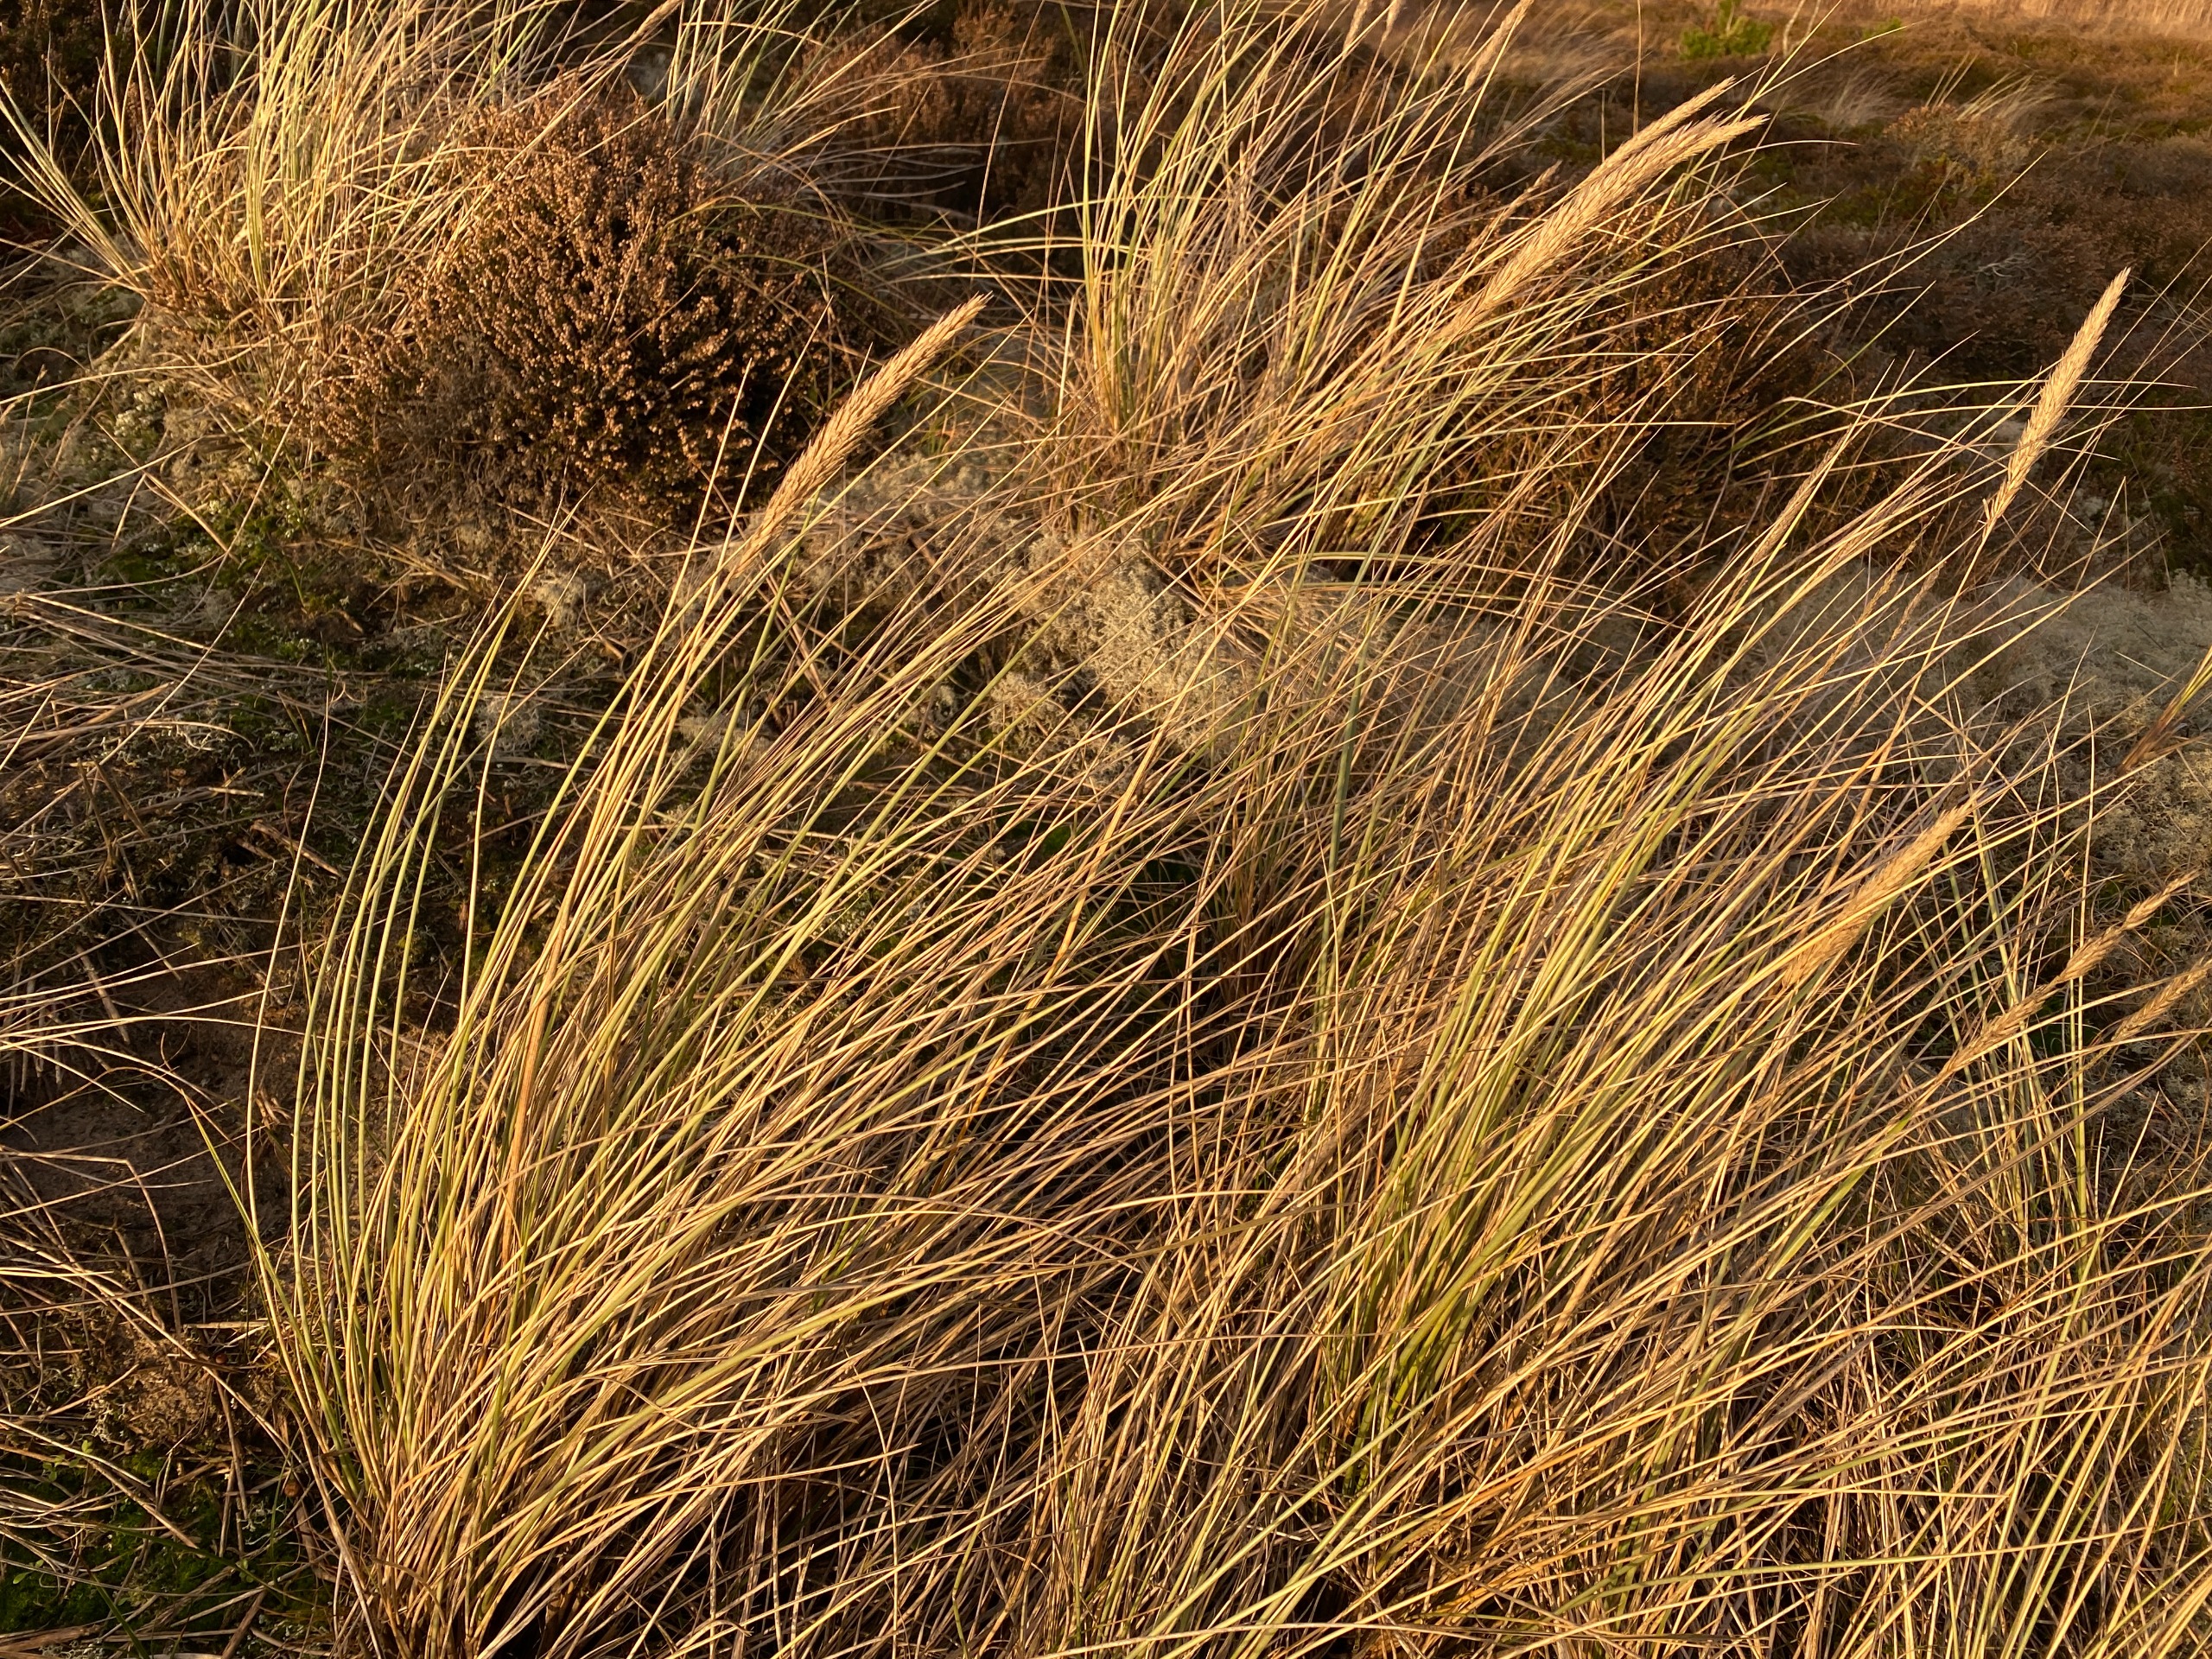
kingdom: Plantae
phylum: Tracheophyta
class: Liliopsida
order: Poales
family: Poaceae
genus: Calamagrostis
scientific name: Calamagrostis arenaria
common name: Sand-hjælme
